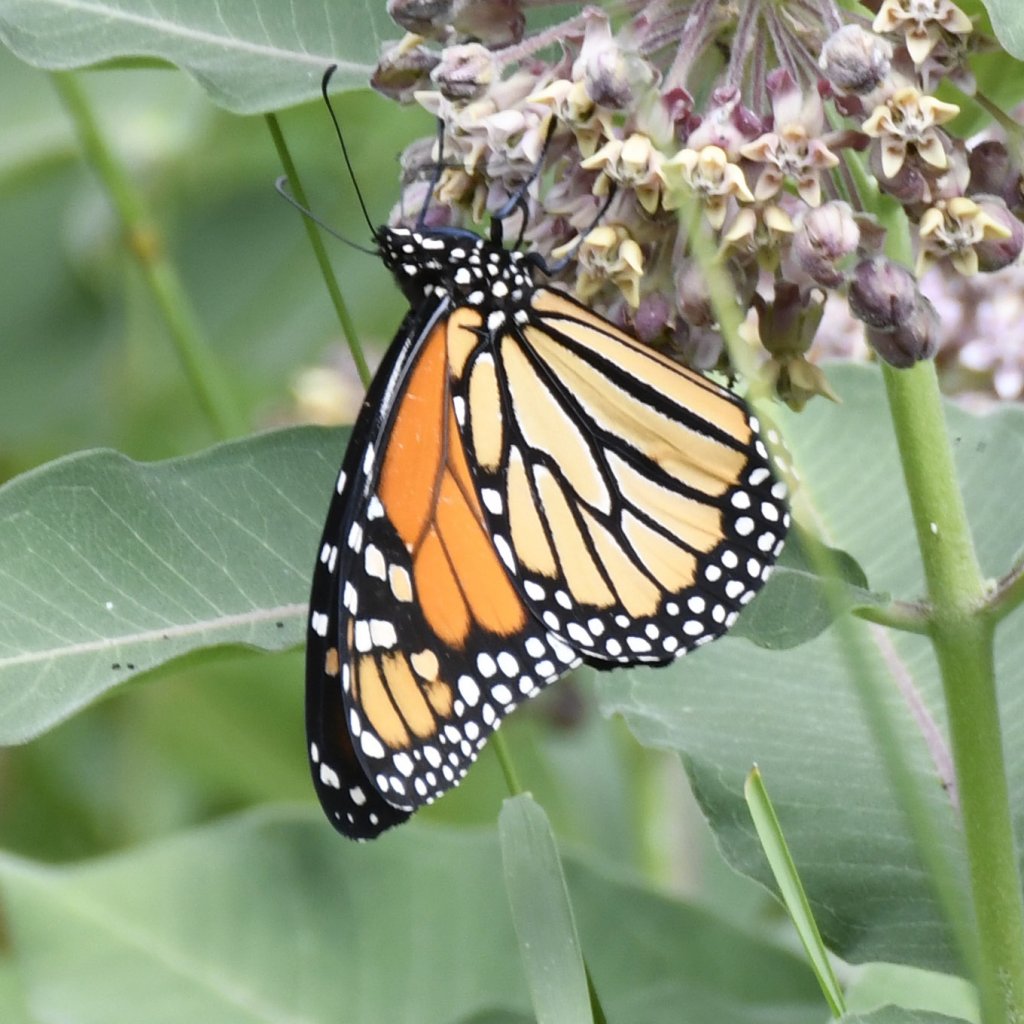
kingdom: Animalia
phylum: Arthropoda
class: Insecta
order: Lepidoptera
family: Nymphalidae
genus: Danaus
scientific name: Danaus plexippus
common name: Monarch
